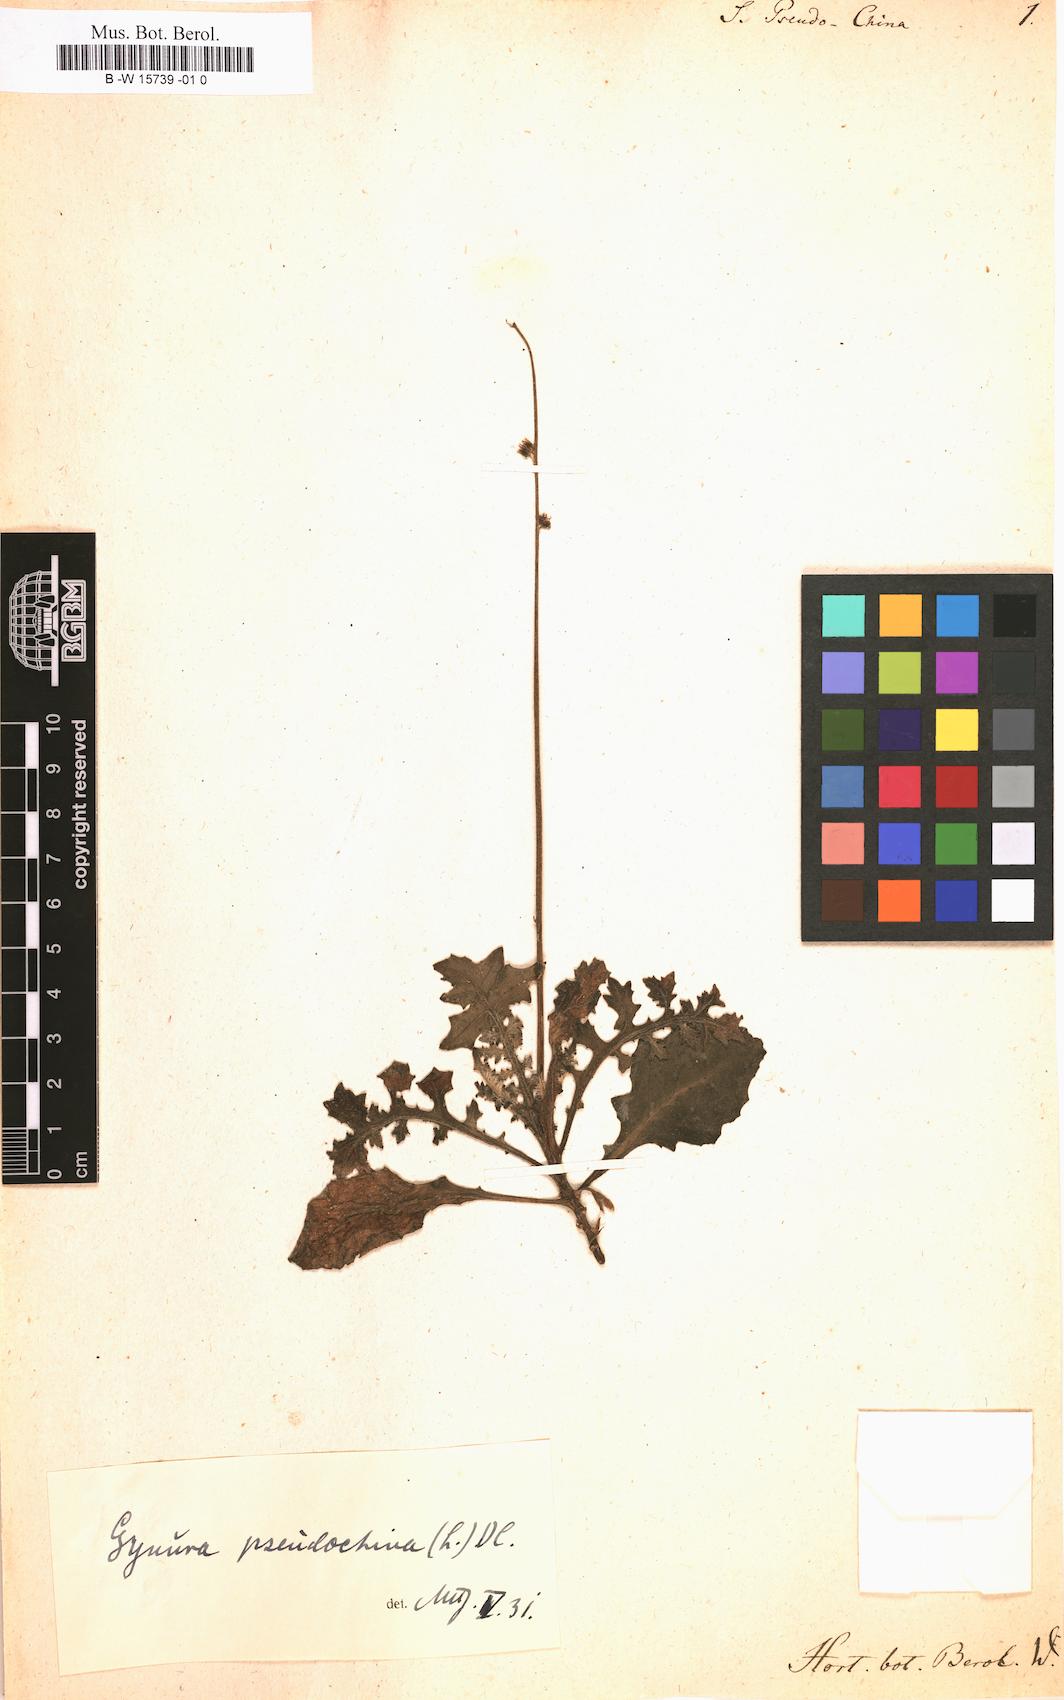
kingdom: Plantae
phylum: Tracheophyta
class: Magnoliopsida
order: Asterales
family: Asteraceae
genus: Senecio
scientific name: Senecio pseudochina
